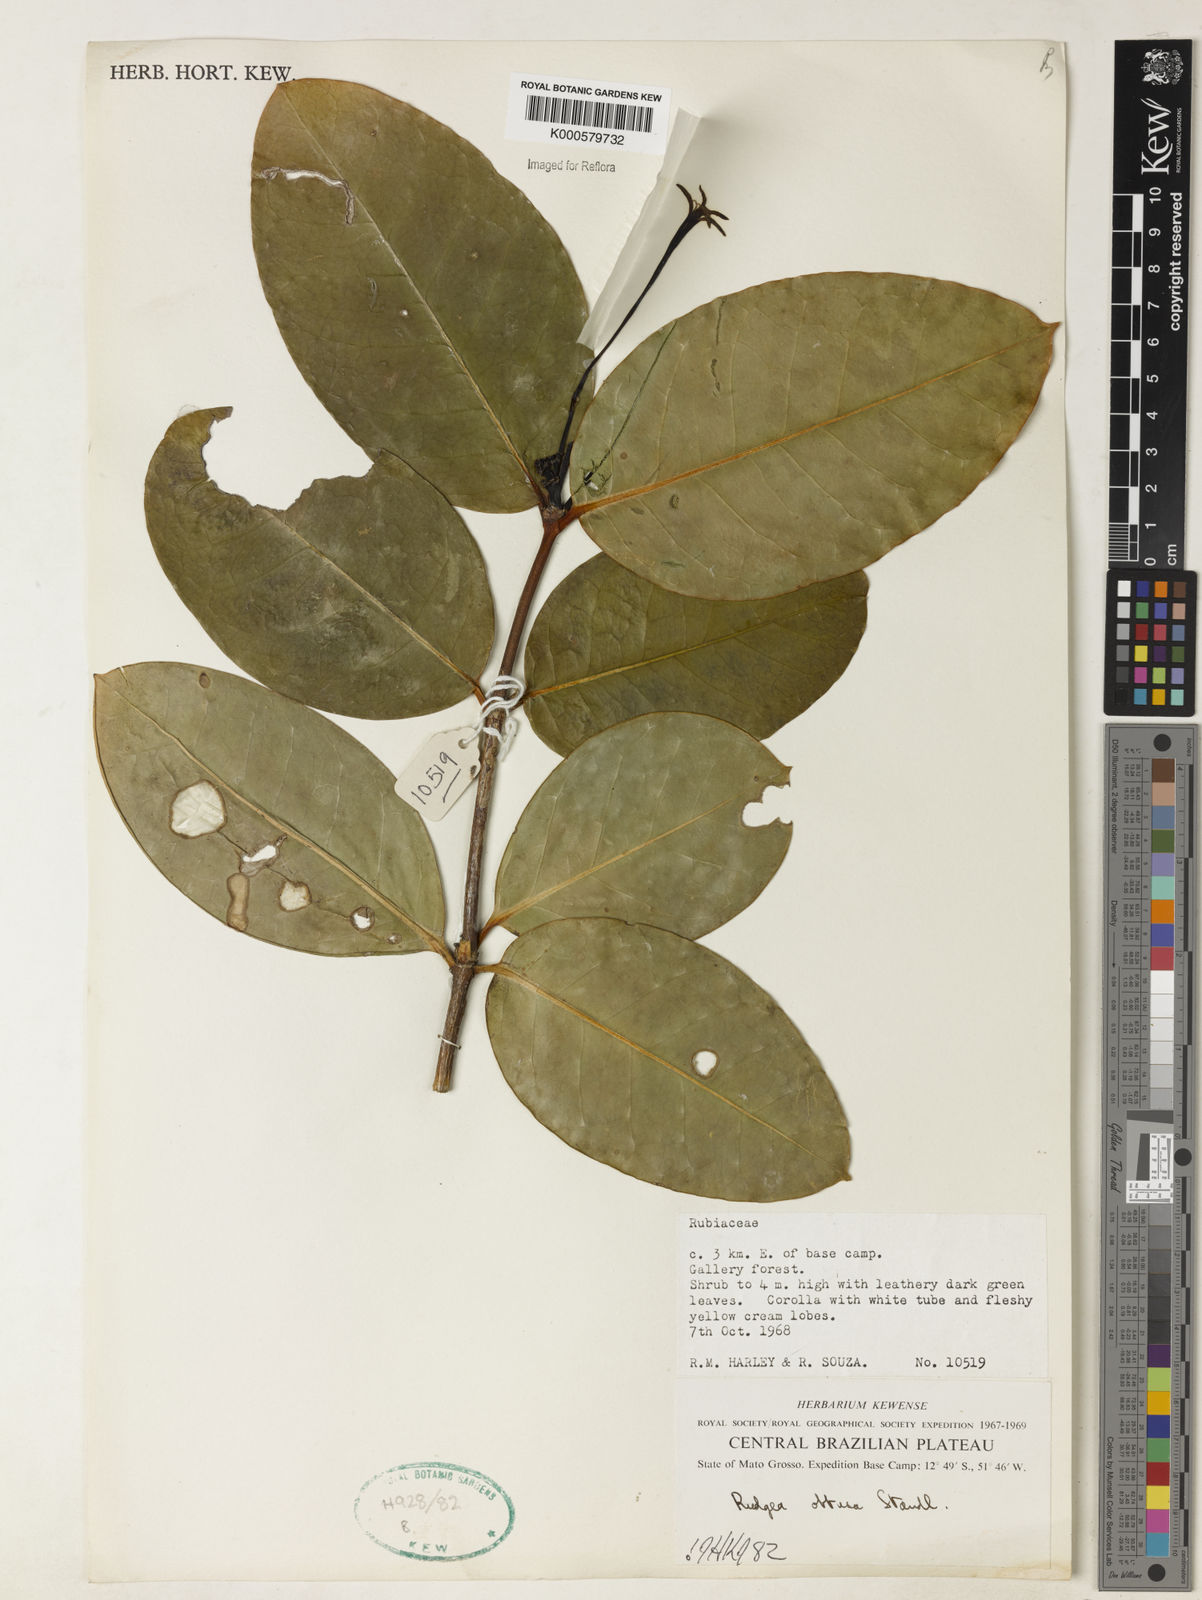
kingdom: Plantae
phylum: Tracheophyta
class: Magnoliopsida
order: Gentianales
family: Rubiaceae
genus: Rudgea
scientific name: Rudgea goyazensis
